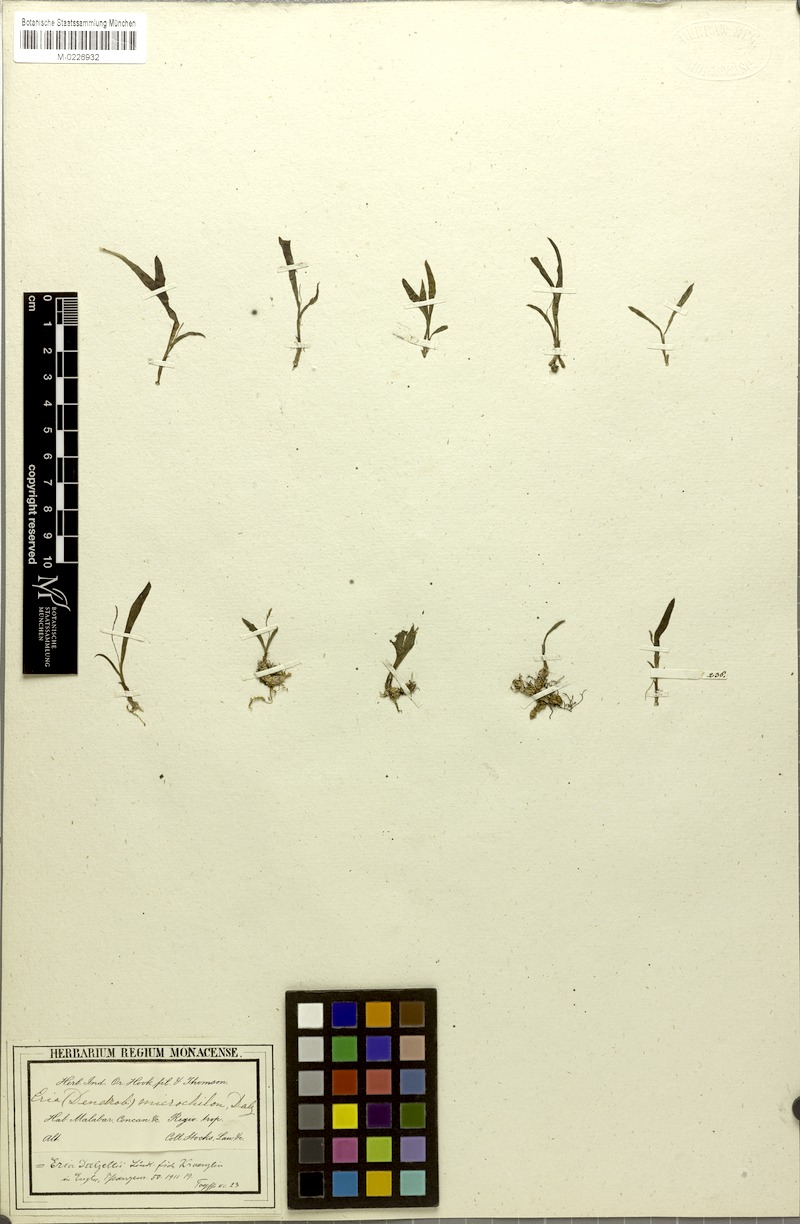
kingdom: Plantae
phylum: Tracheophyta
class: Liliopsida
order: Asparagales
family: Orchidaceae
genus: Porpax
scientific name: Porpax filiformis
